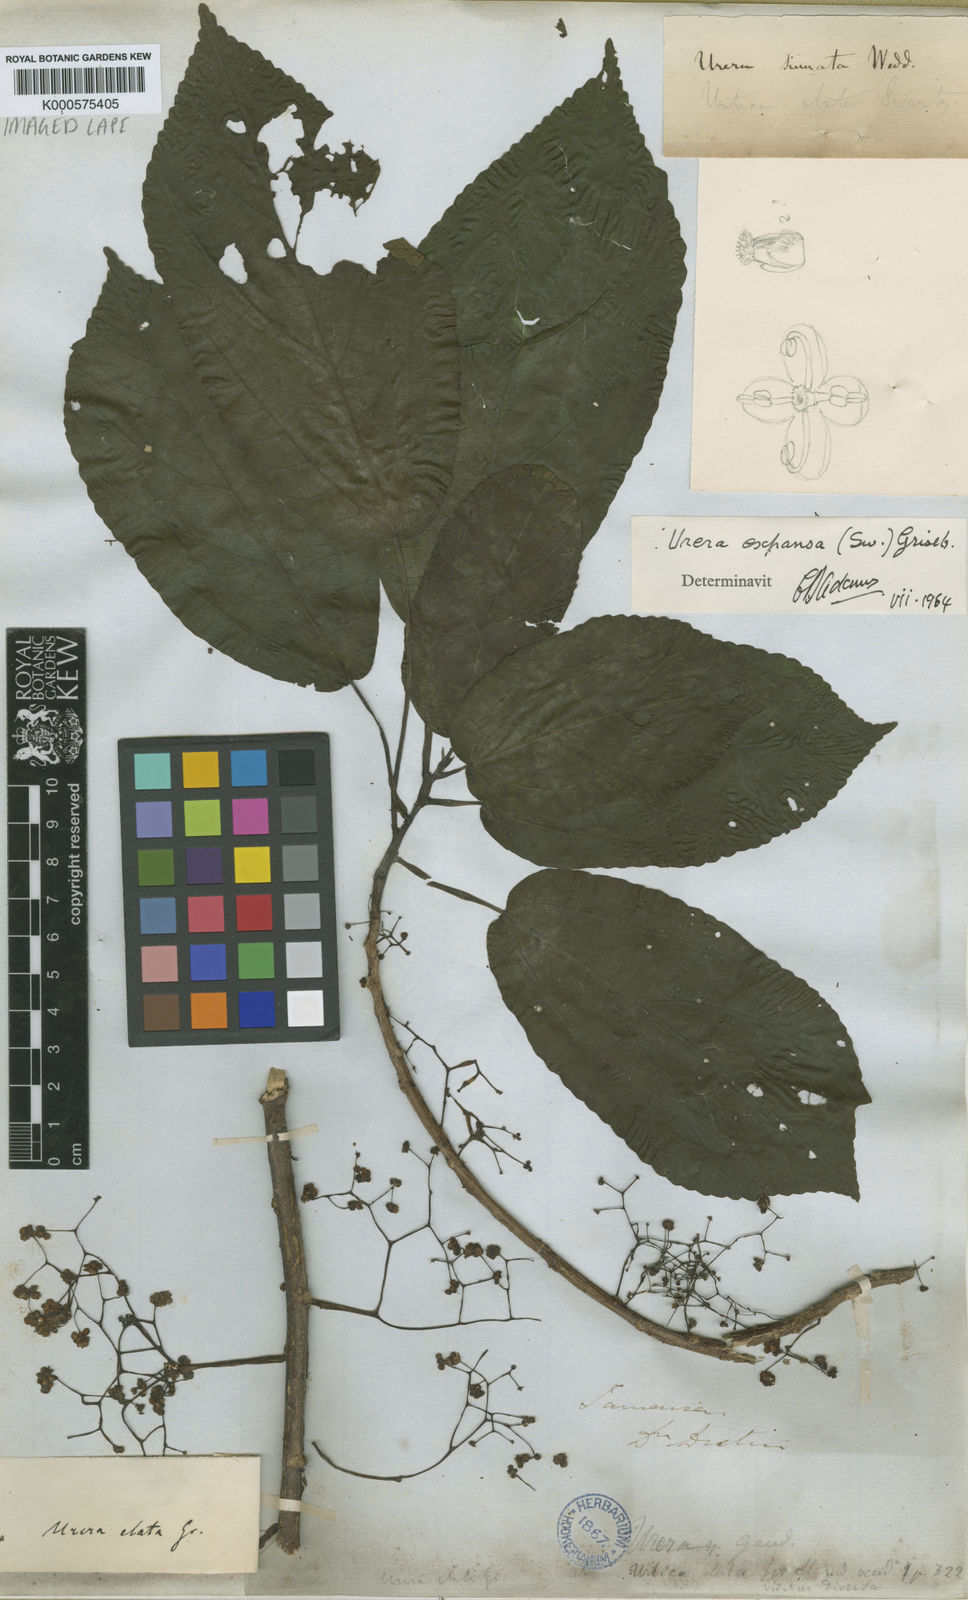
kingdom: Plantae
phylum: Tracheophyta
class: Magnoliopsida
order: Rosales
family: Urticaceae
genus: Urera
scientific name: Urera expansa
